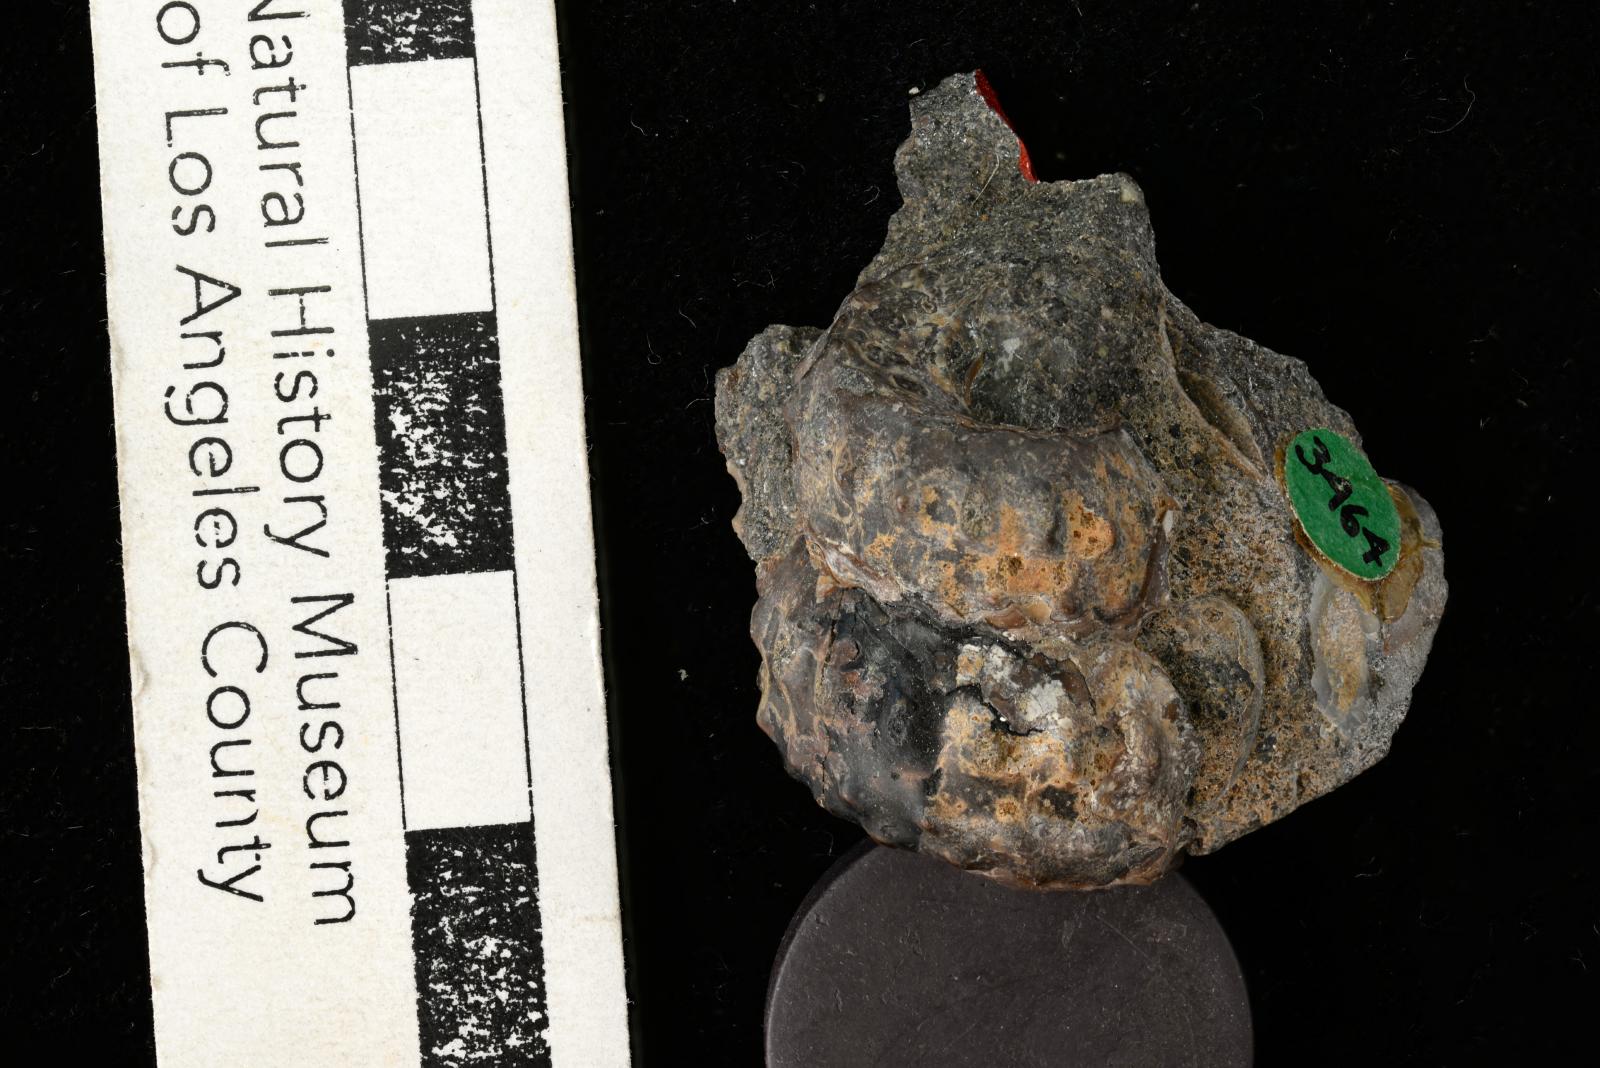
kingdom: Animalia
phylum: Mollusca
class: Cephalopoda
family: Turrilitidae
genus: Turrilites
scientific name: Turrilites acutus
